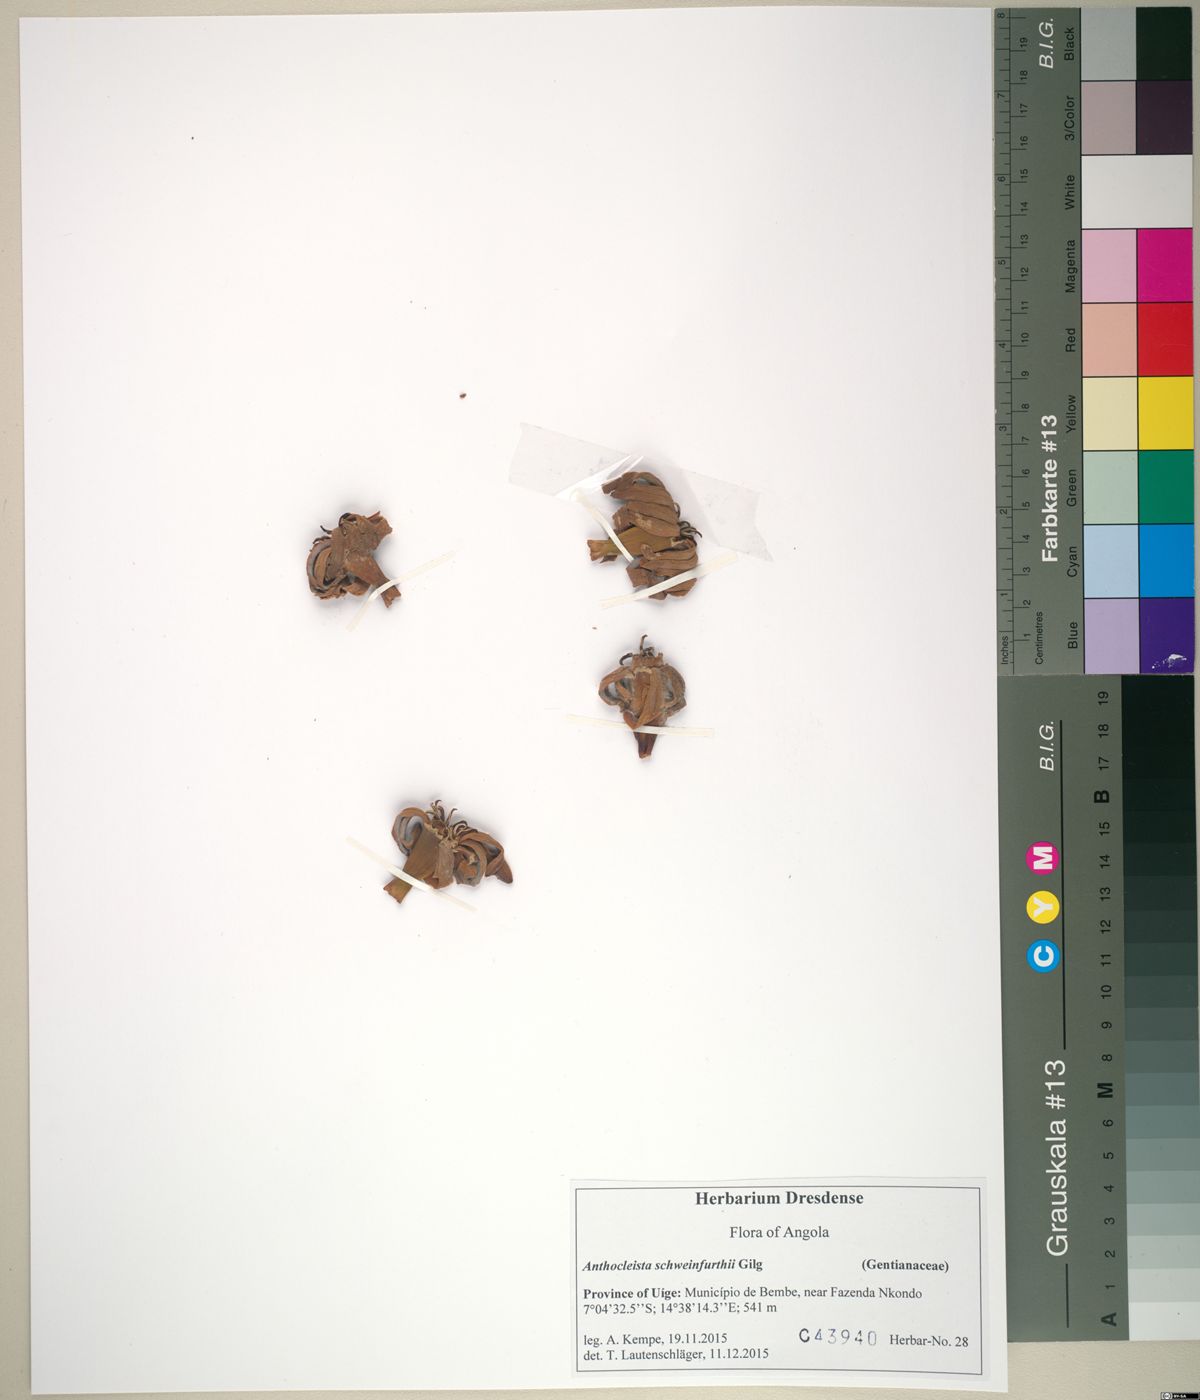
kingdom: Plantae
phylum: Tracheophyta
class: Magnoliopsida
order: Gentianales
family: Gentianaceae
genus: Anthocleista
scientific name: Anthocleista liebrechtsiana
